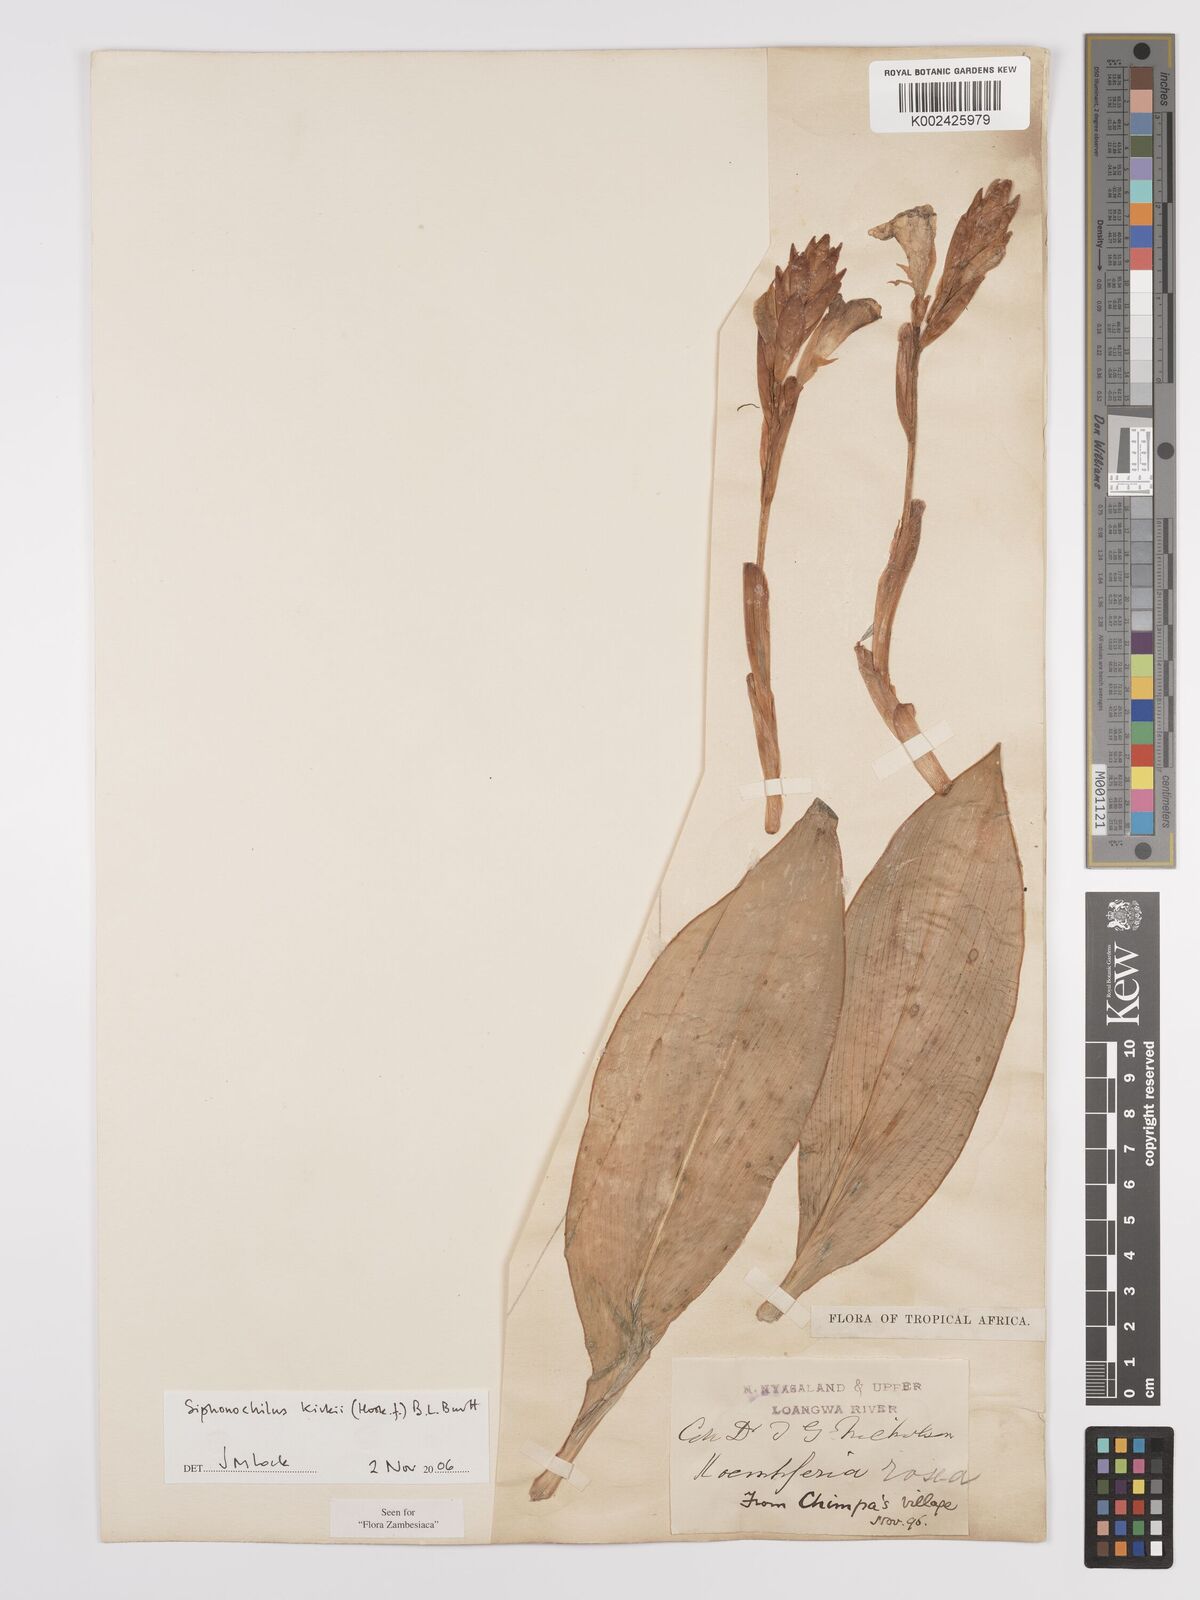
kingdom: Plantae
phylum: Tracheophyta
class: Liliopsida
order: Zingiberales
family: Zingiberaceae
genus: Siphonochilus
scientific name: Siphonochilus kirkii
